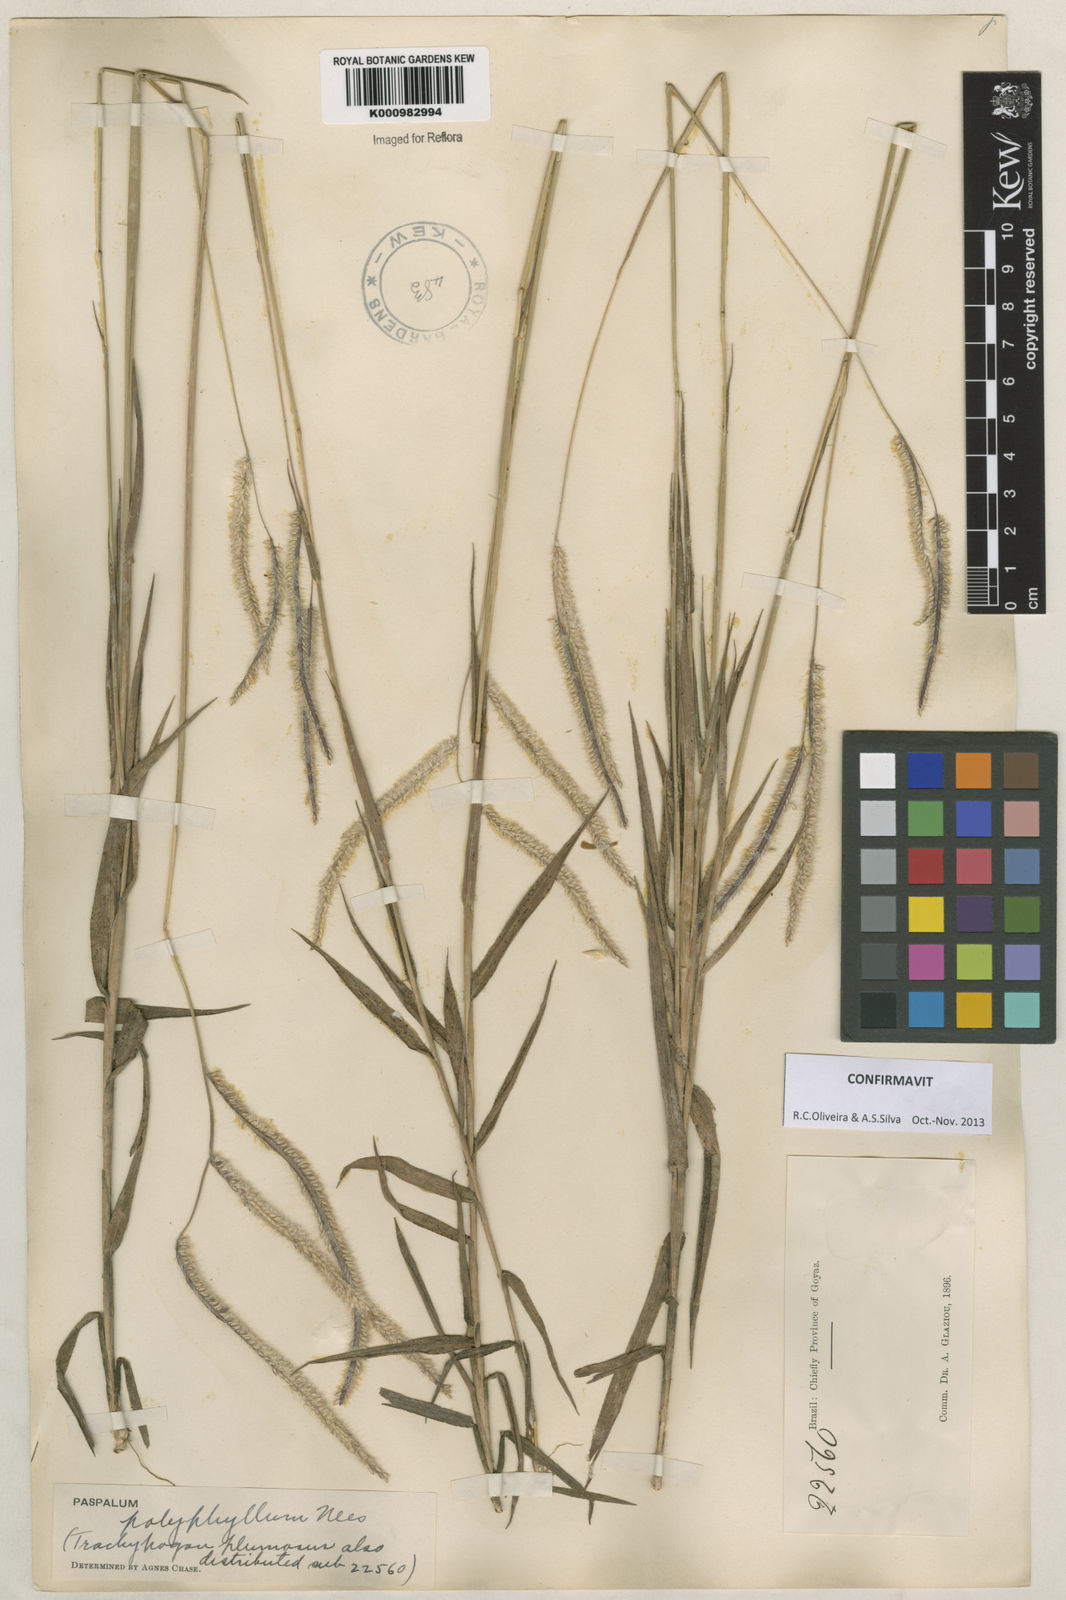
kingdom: Plantae
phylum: Tracheophyta
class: Liliopsida
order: Poales
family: Poaceae
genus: Paspalum
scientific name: Paspalum
